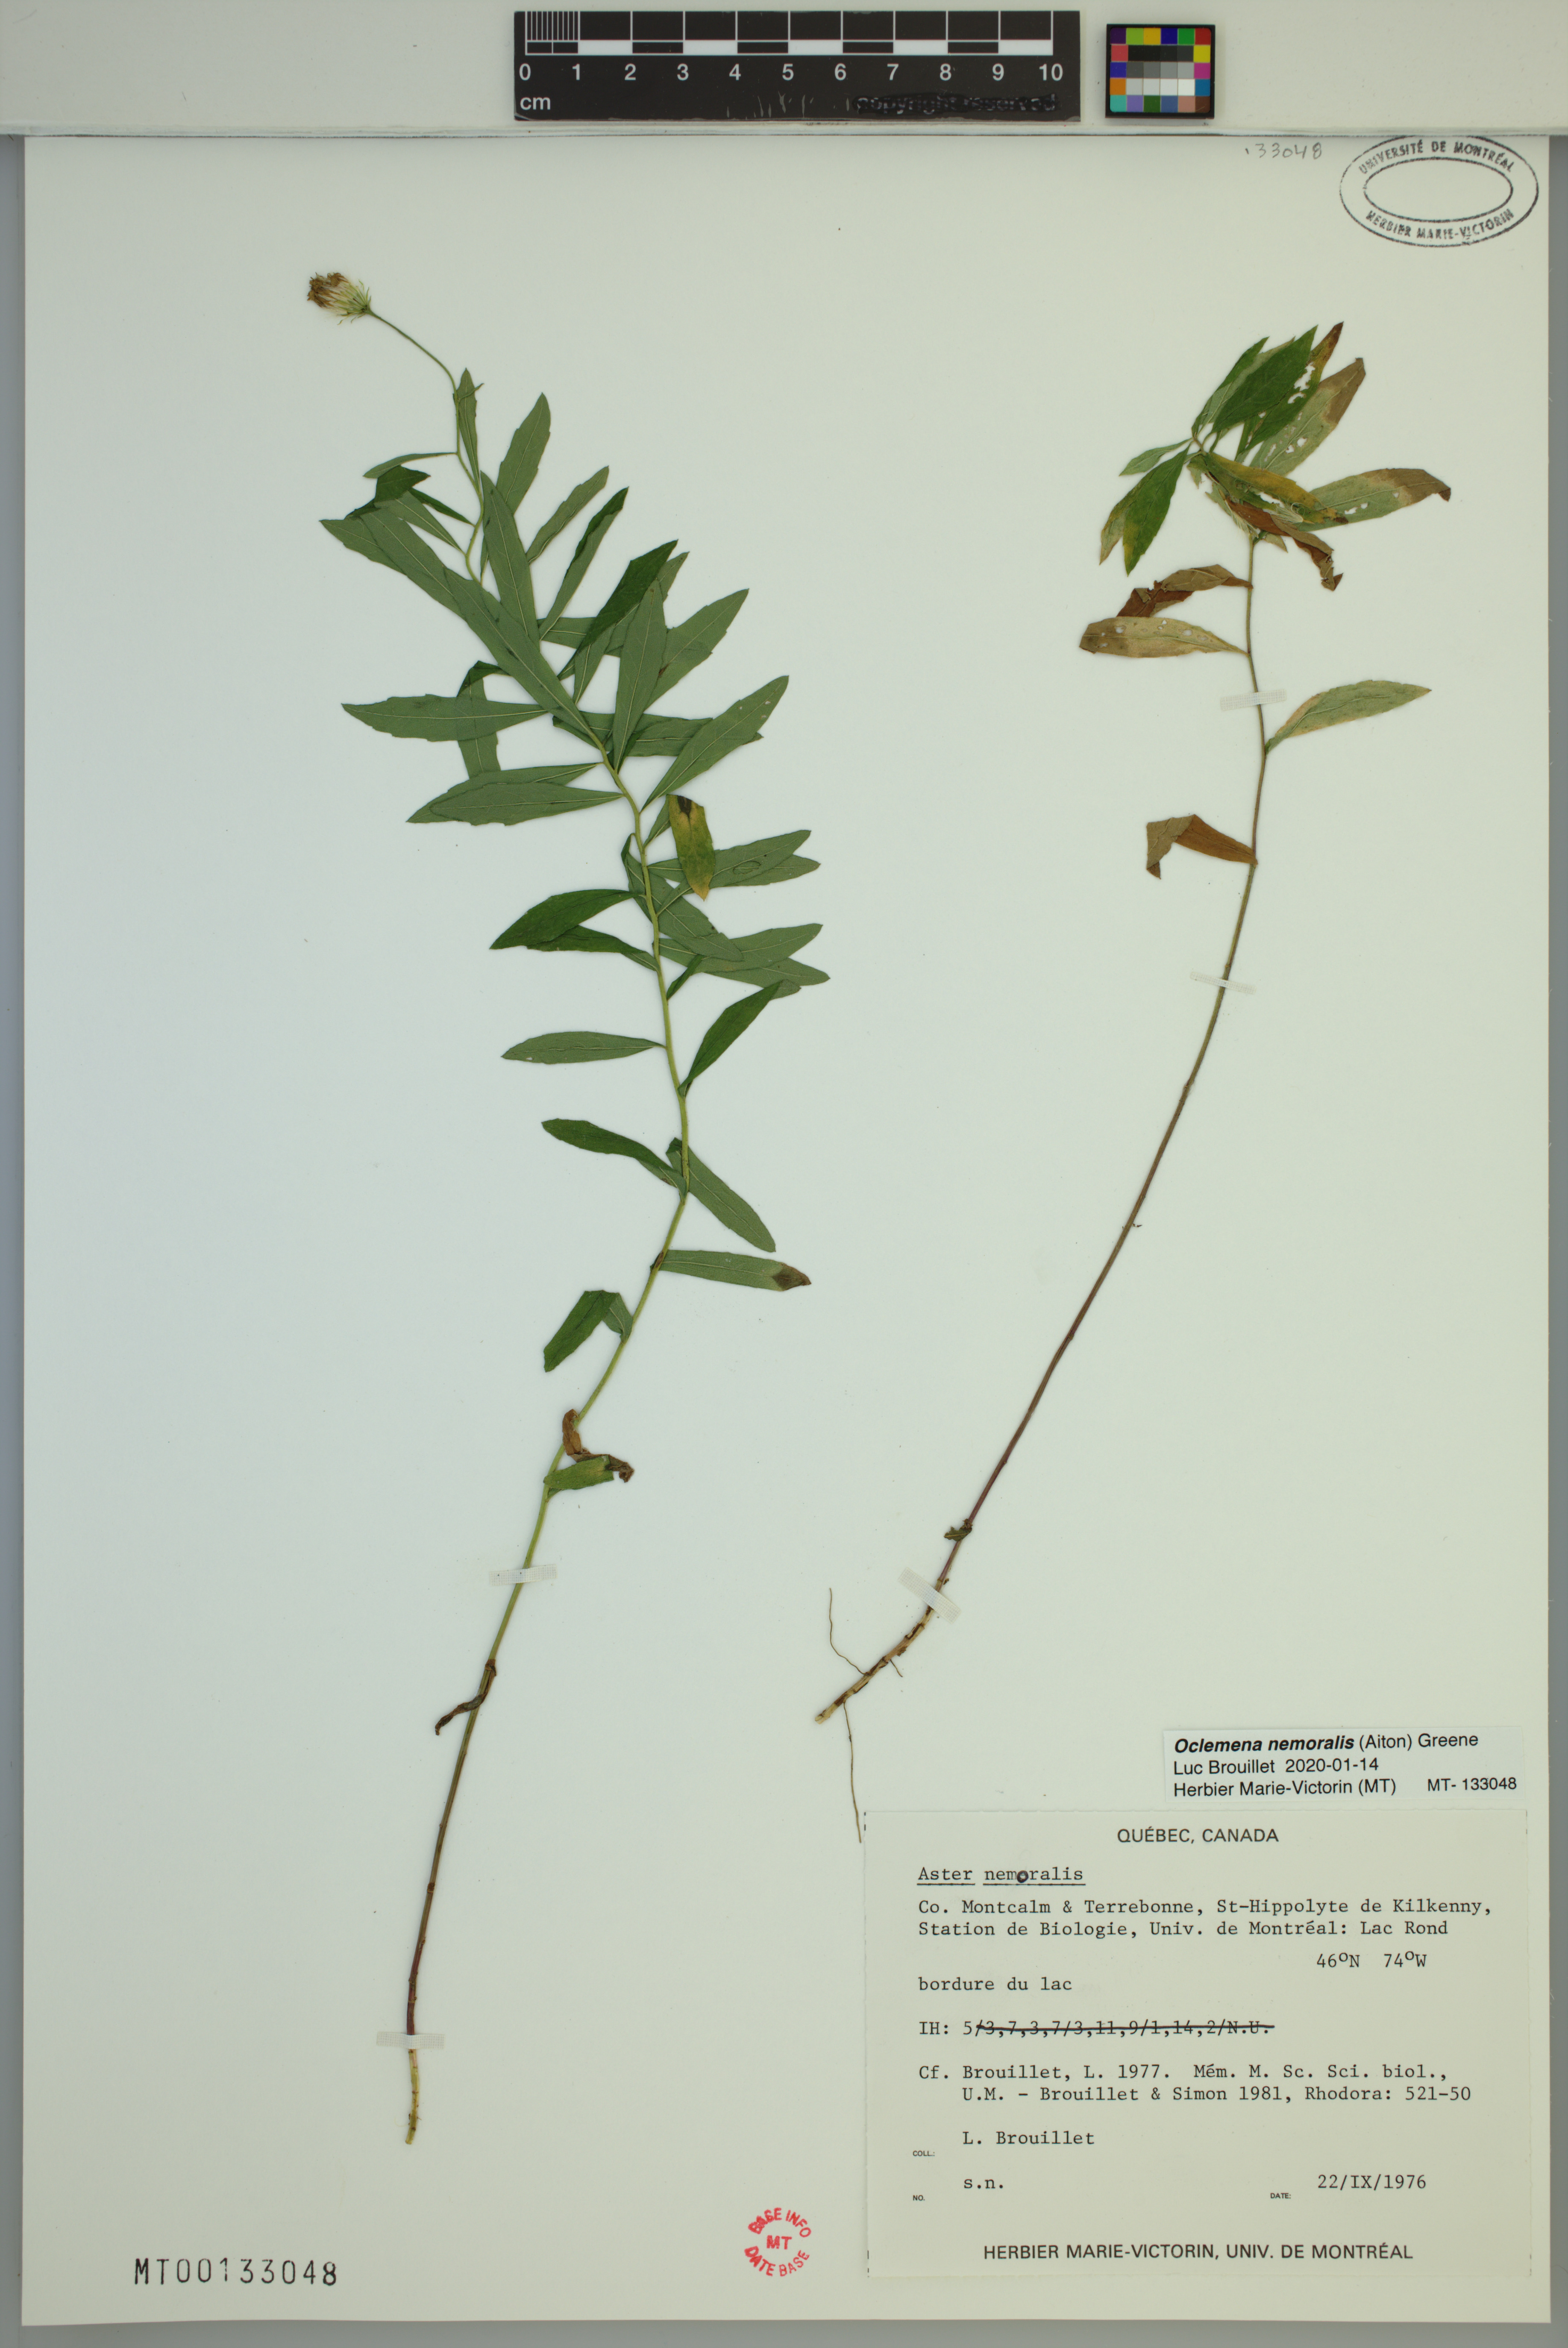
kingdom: Plantae
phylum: Tracheophyta
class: Magnoliopsida
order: Asterales
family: Asteraceae
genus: Oclemena
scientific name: Oclemena nemoralis
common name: Bog aster
